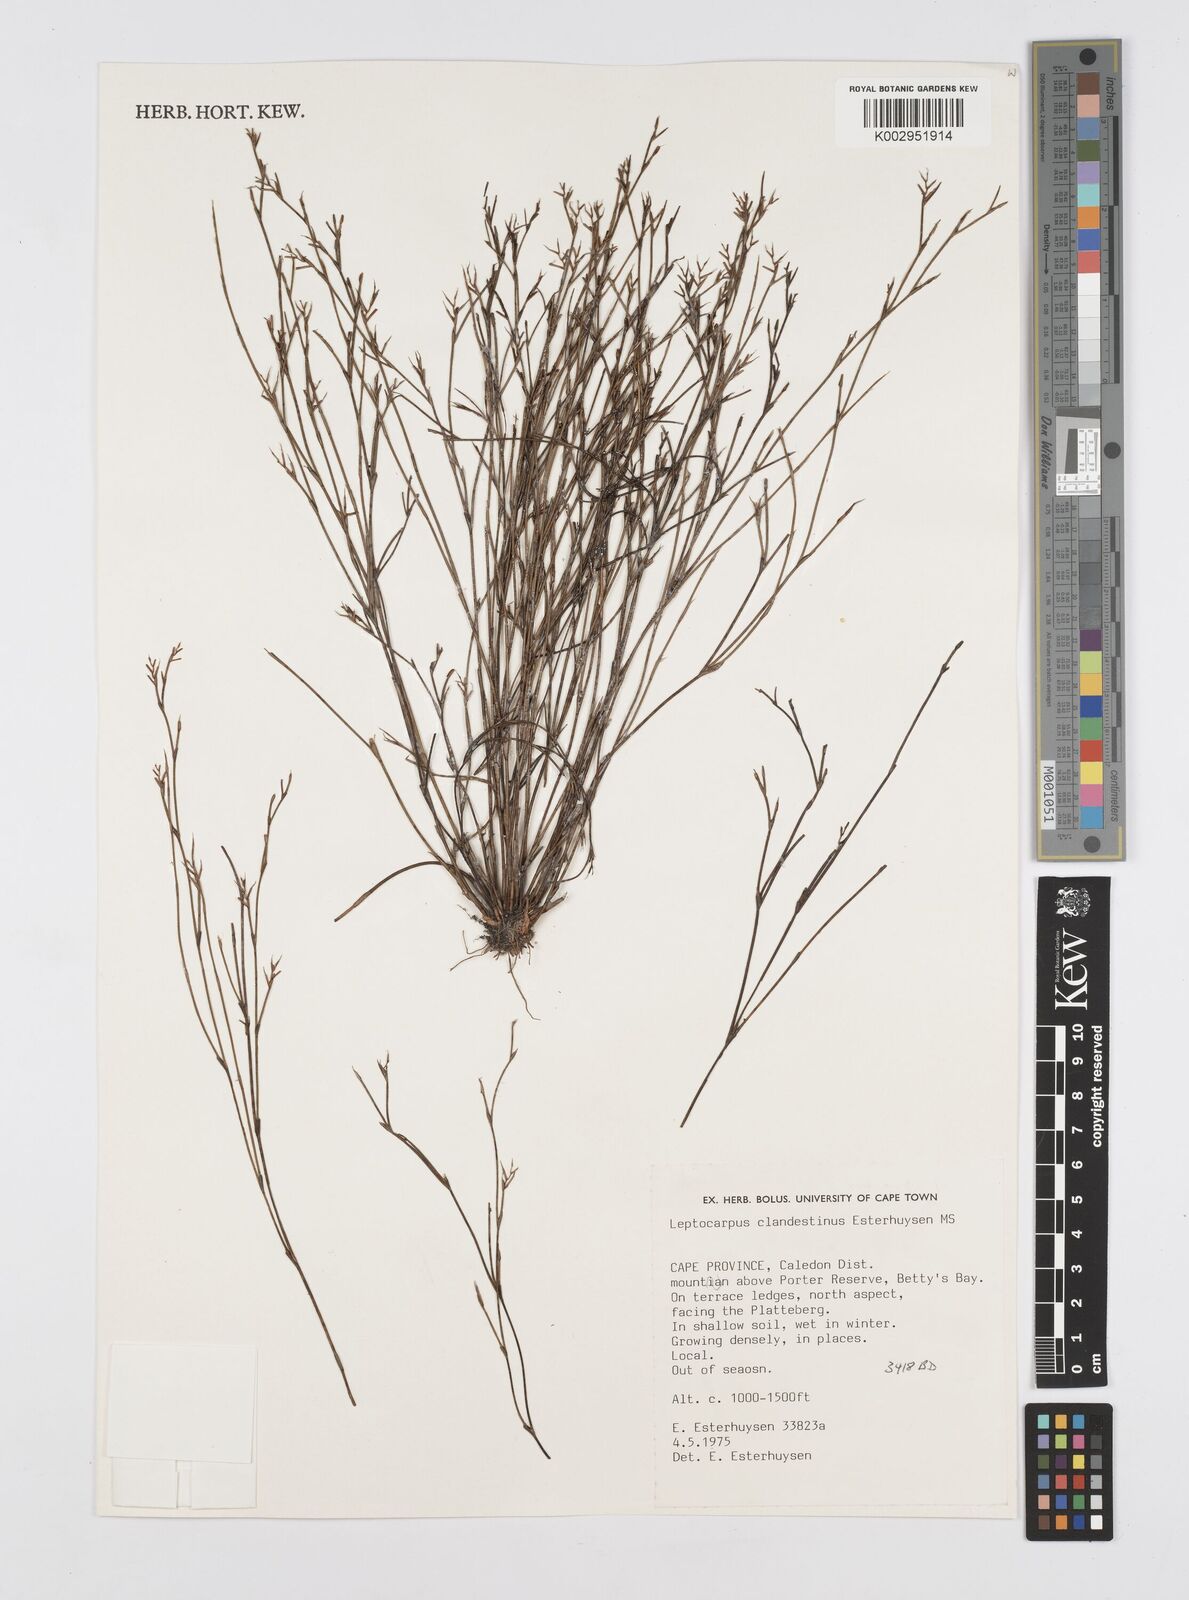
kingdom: Plantae
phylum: Tracheophyta
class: Liliopsida
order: Poales
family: Restionaceae
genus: Restio
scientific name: Restio clandestinus
